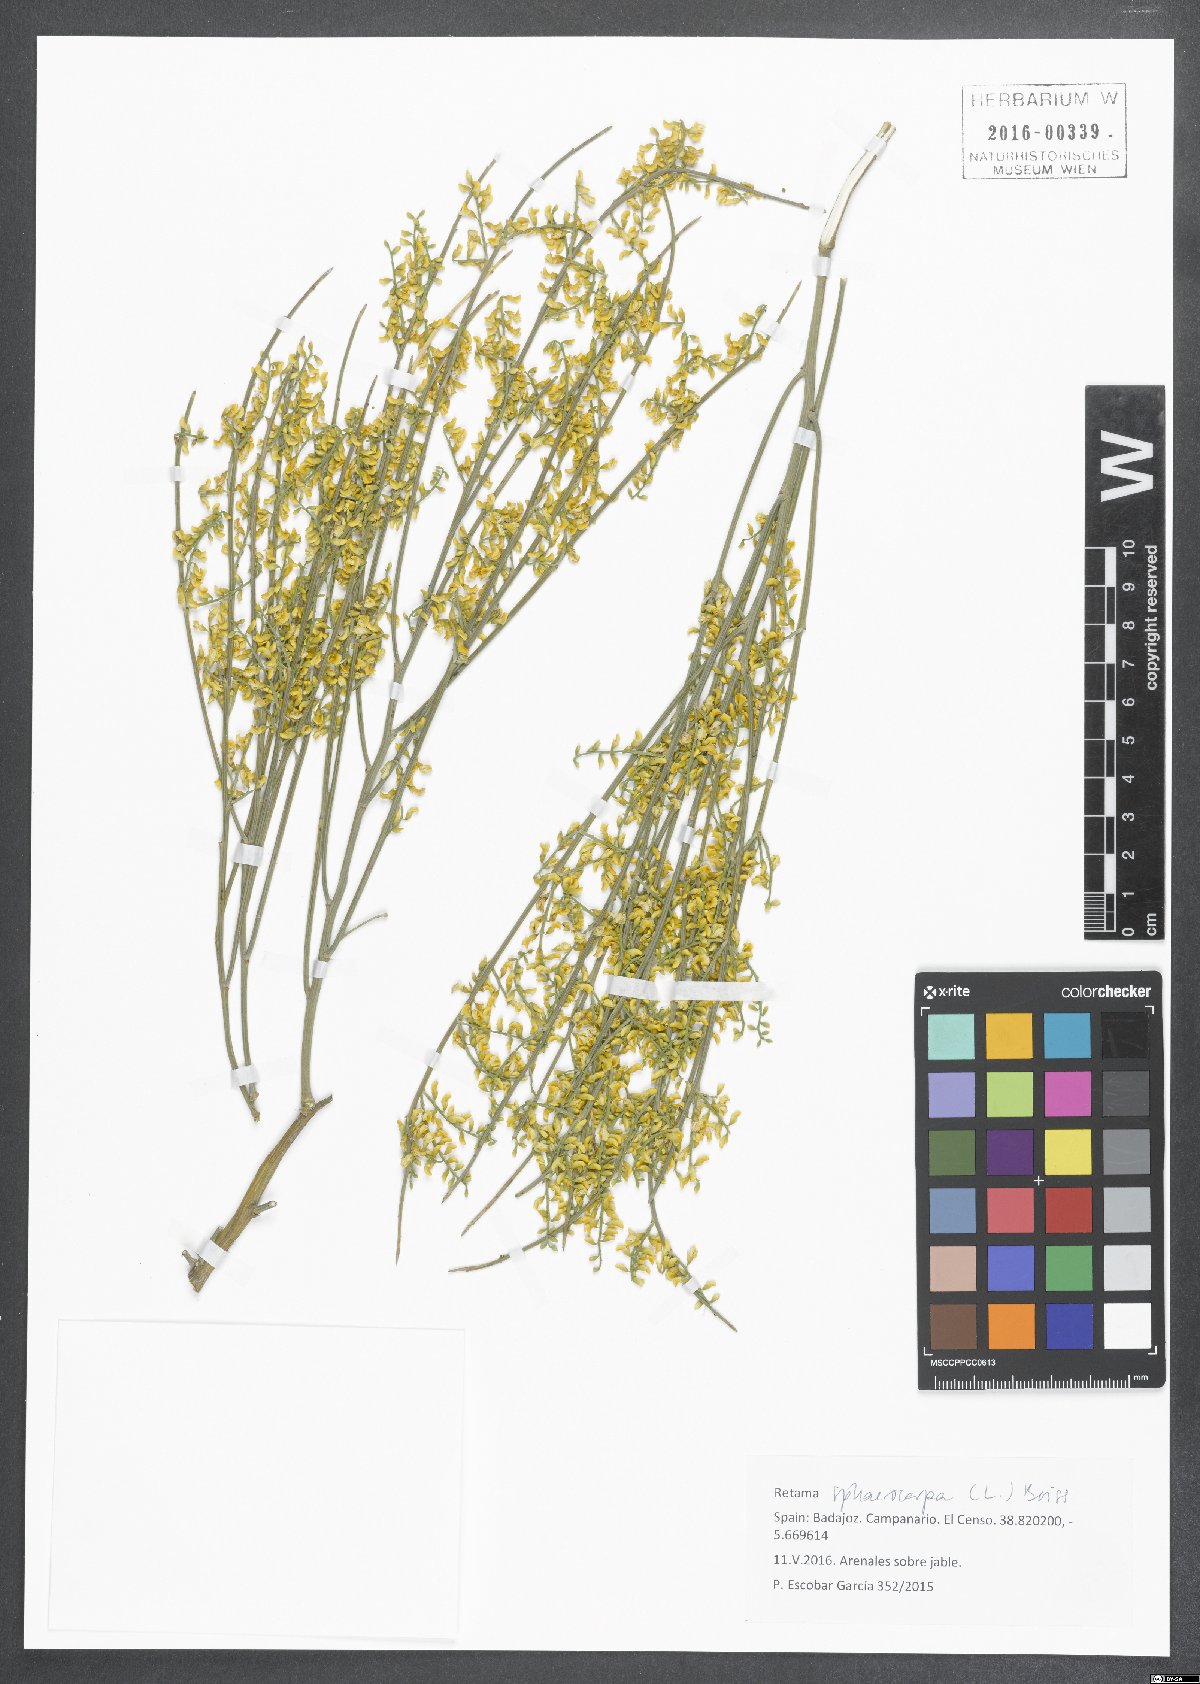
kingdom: Plantae
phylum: Tracheophyta
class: Magnoliopsida
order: Fabales
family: Fabaceae
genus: Retama
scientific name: Retama sphaerocarpa
